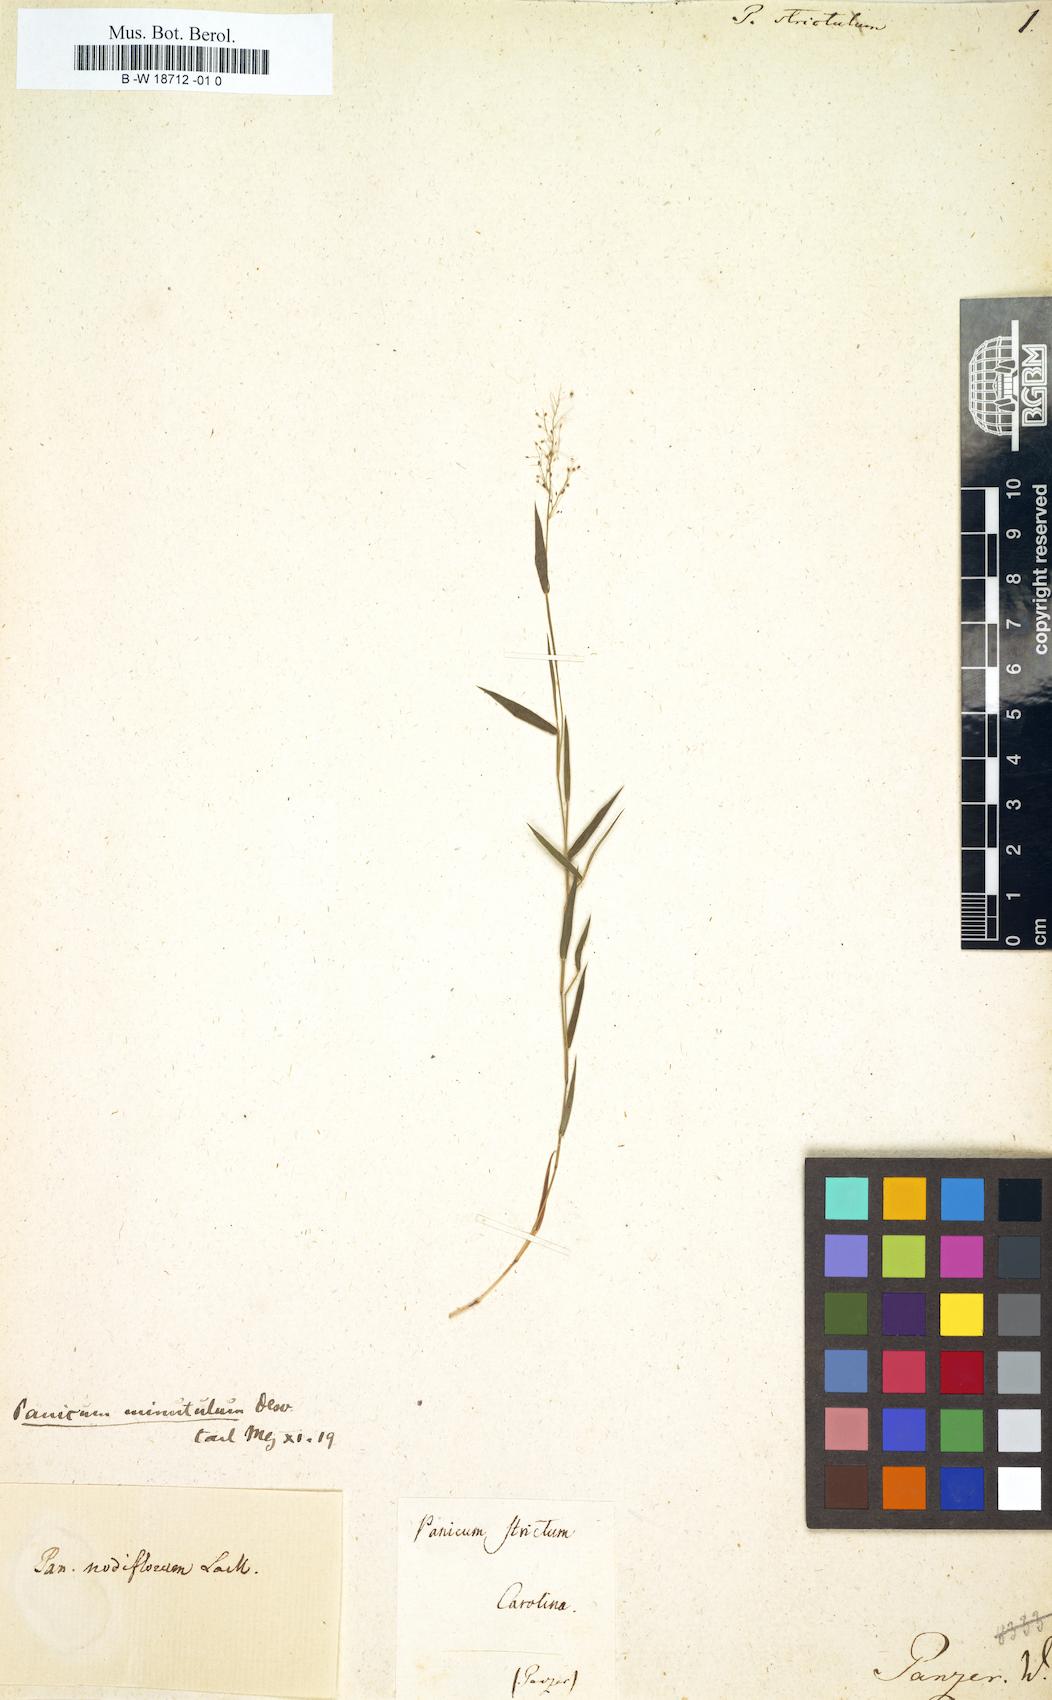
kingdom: Plantae
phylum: Tracheophyta
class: Liliopsida
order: Poales
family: Poaceae
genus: Digitaria
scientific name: Digitaria parviflora
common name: Small-flower finger grass
